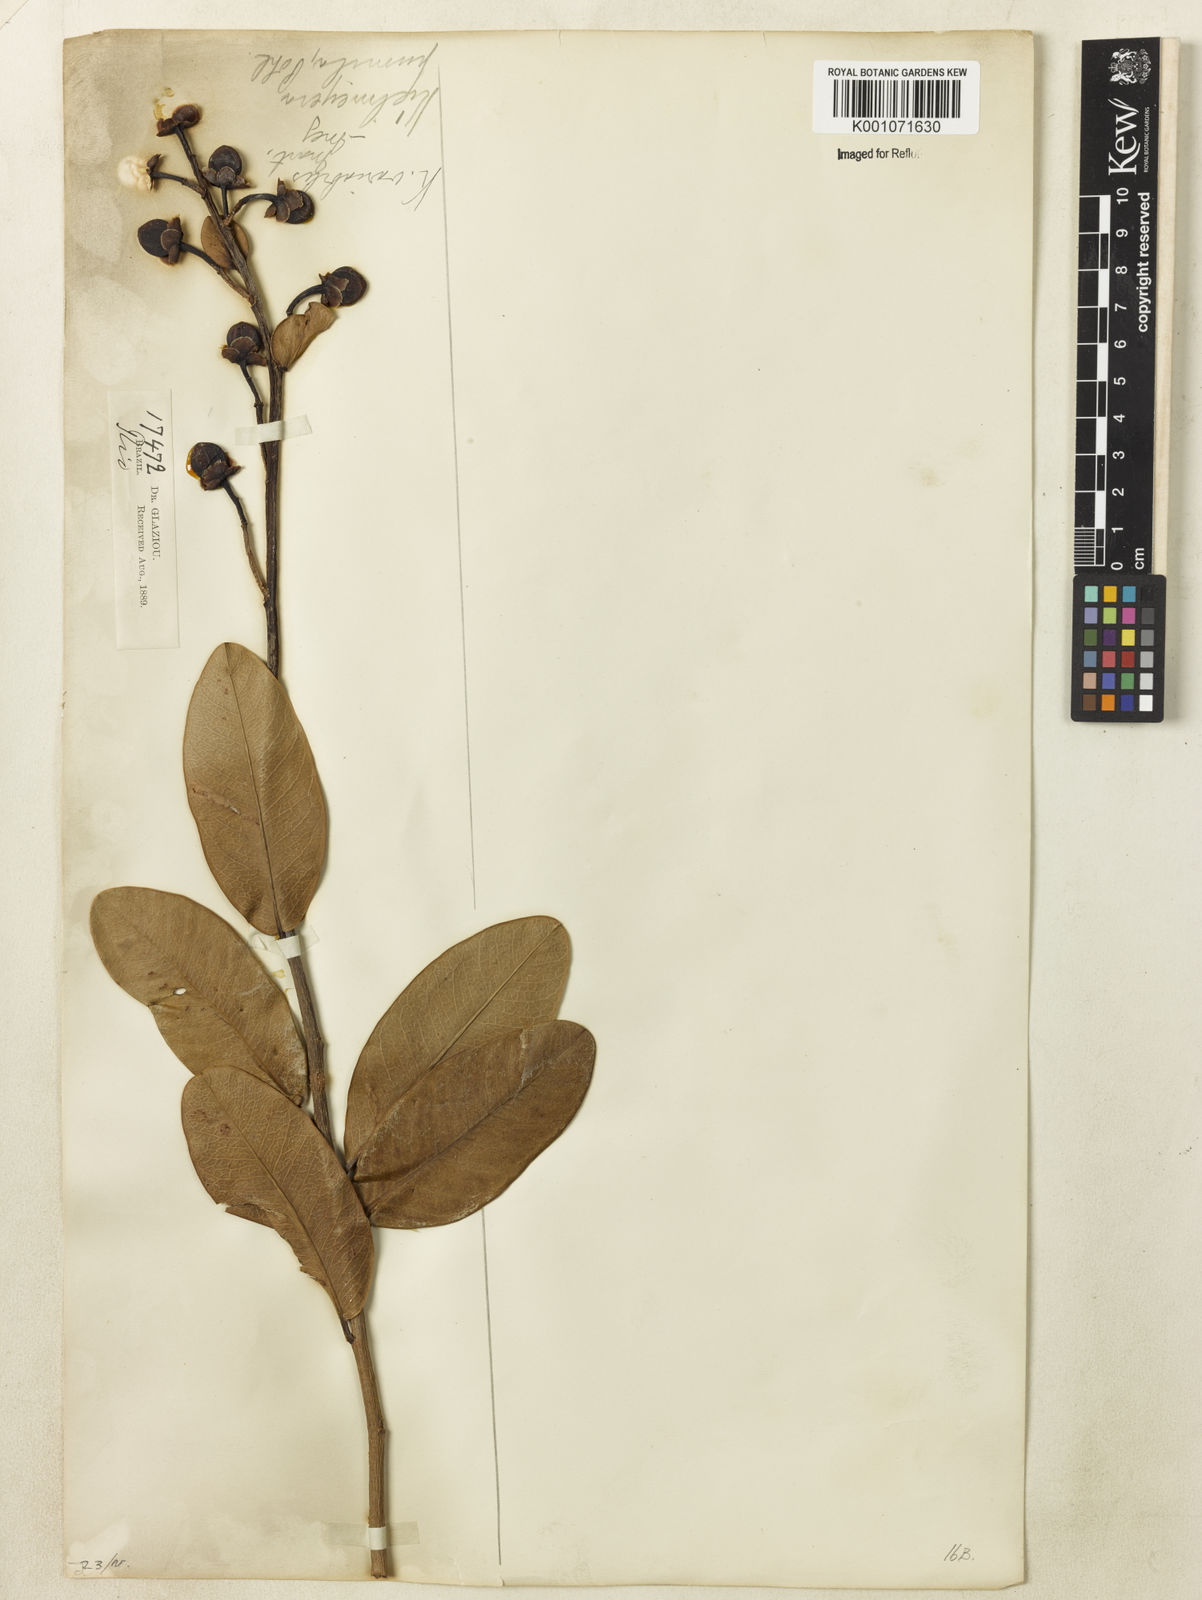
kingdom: Plantae
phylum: Tracheophyta
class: Magnoliopsida
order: Malpighiales
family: Calophyllaceae
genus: Kielmeyera
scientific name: Kielmeyera variabilis
